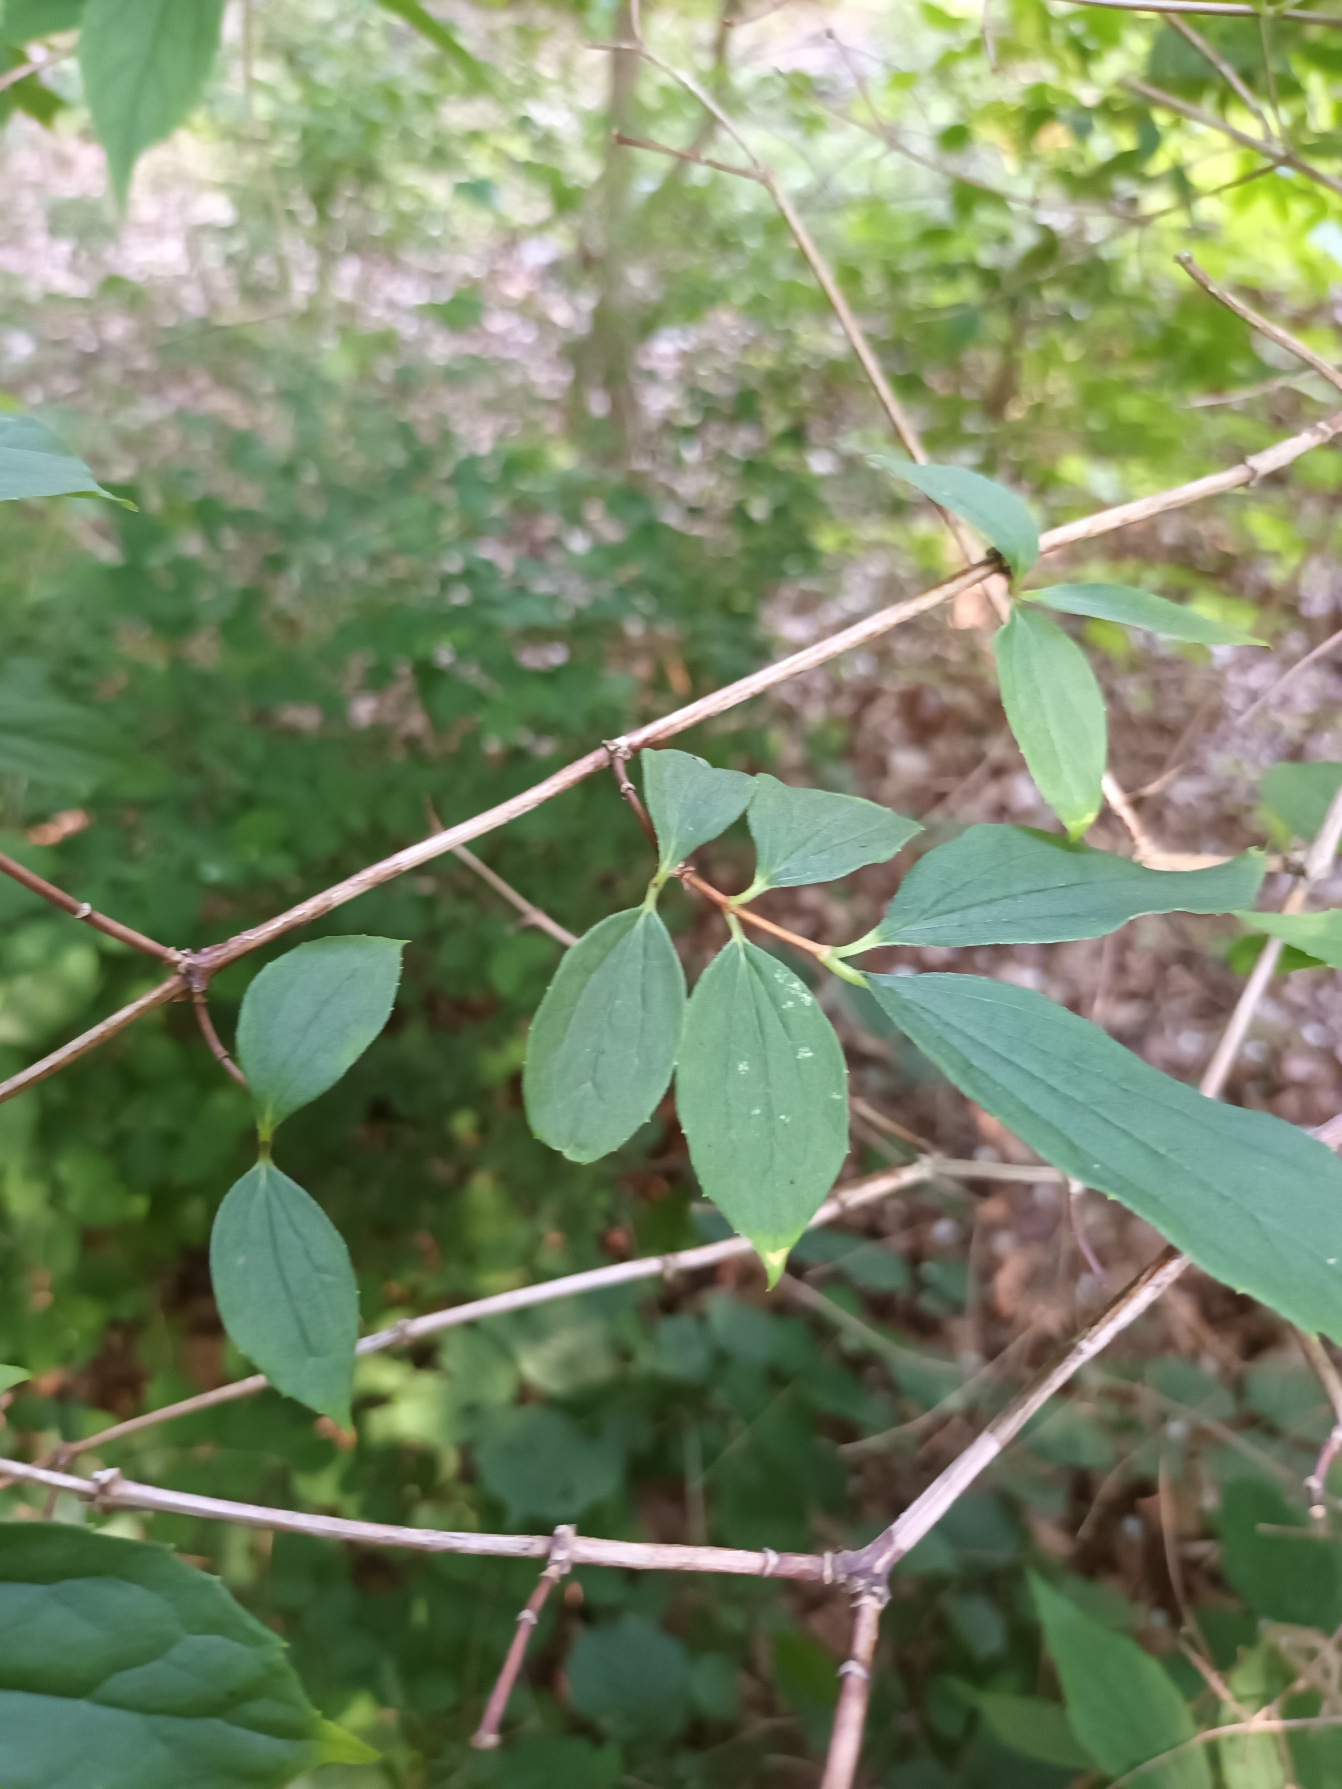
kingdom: Plantae
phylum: Tracheophyta
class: Magnoliopsida
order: Cornales
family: Hydrangeaceae
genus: Philadelphus
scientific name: Philadelphus coronarius
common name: Almindelig pibeved
